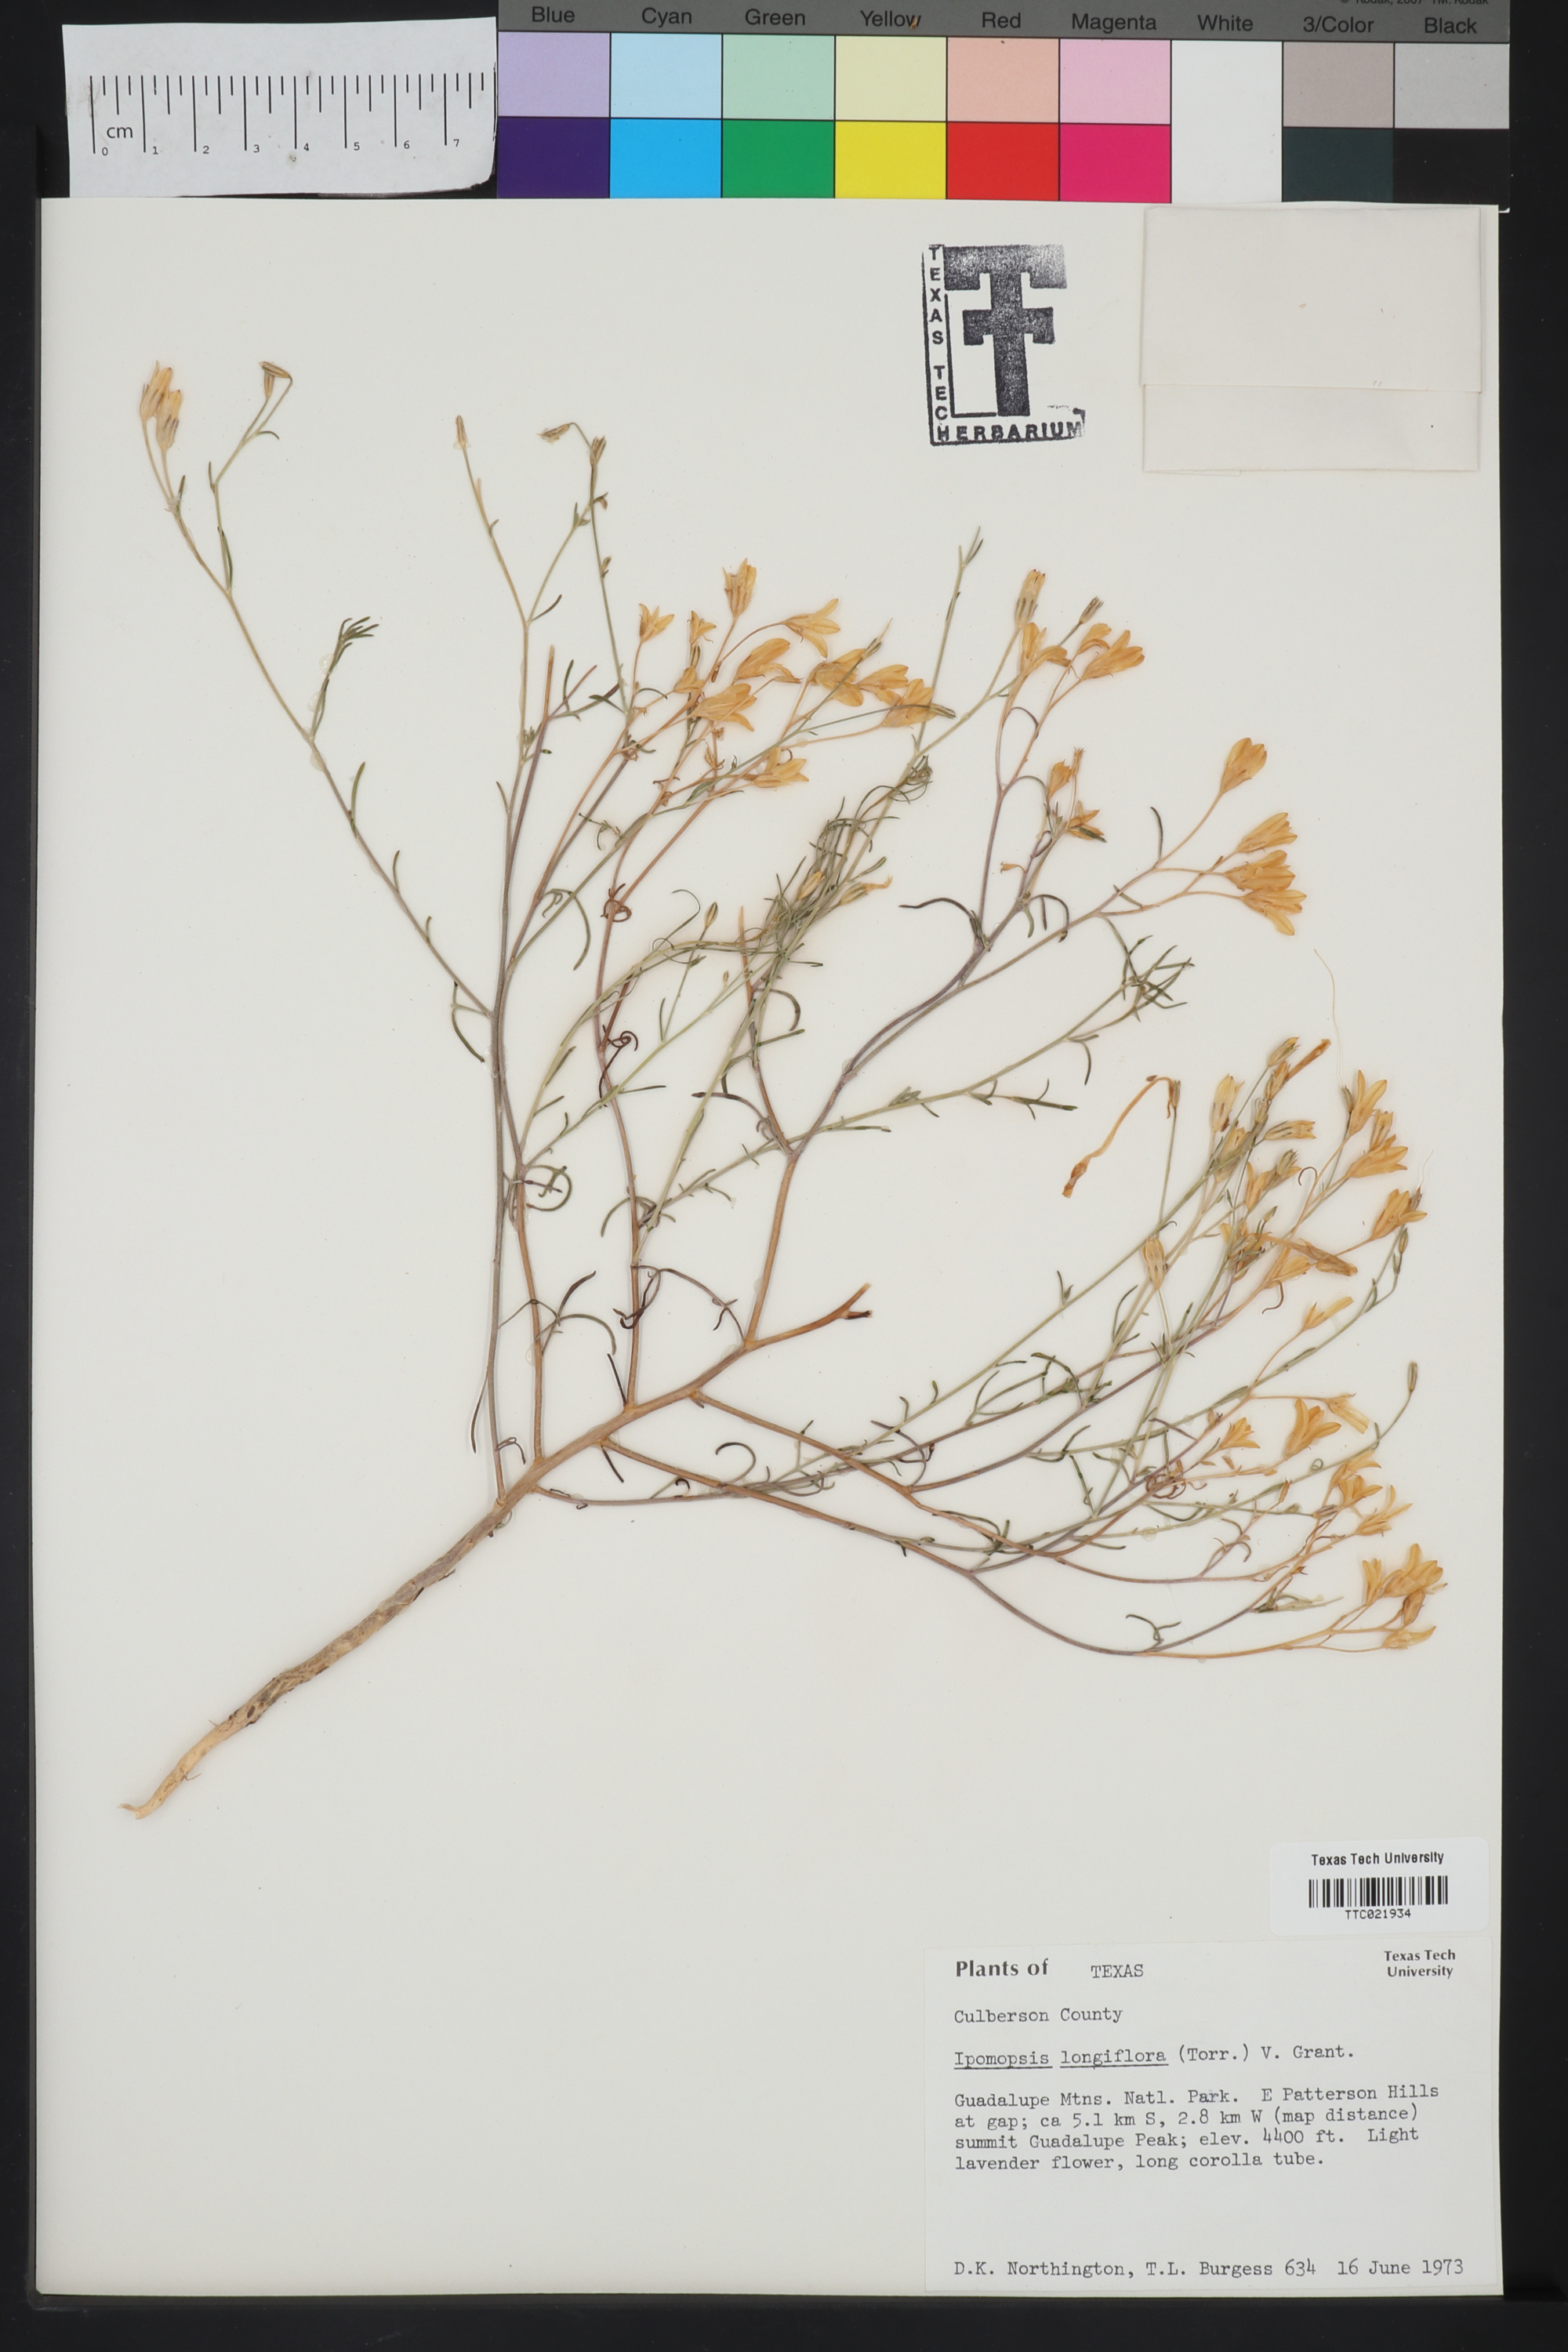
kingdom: Plantae
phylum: Tracheophyta
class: Magnoliopsida
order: Ericales
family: Polemoniaceae
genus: Ipomopsis
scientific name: Ipomopsis longiflora
